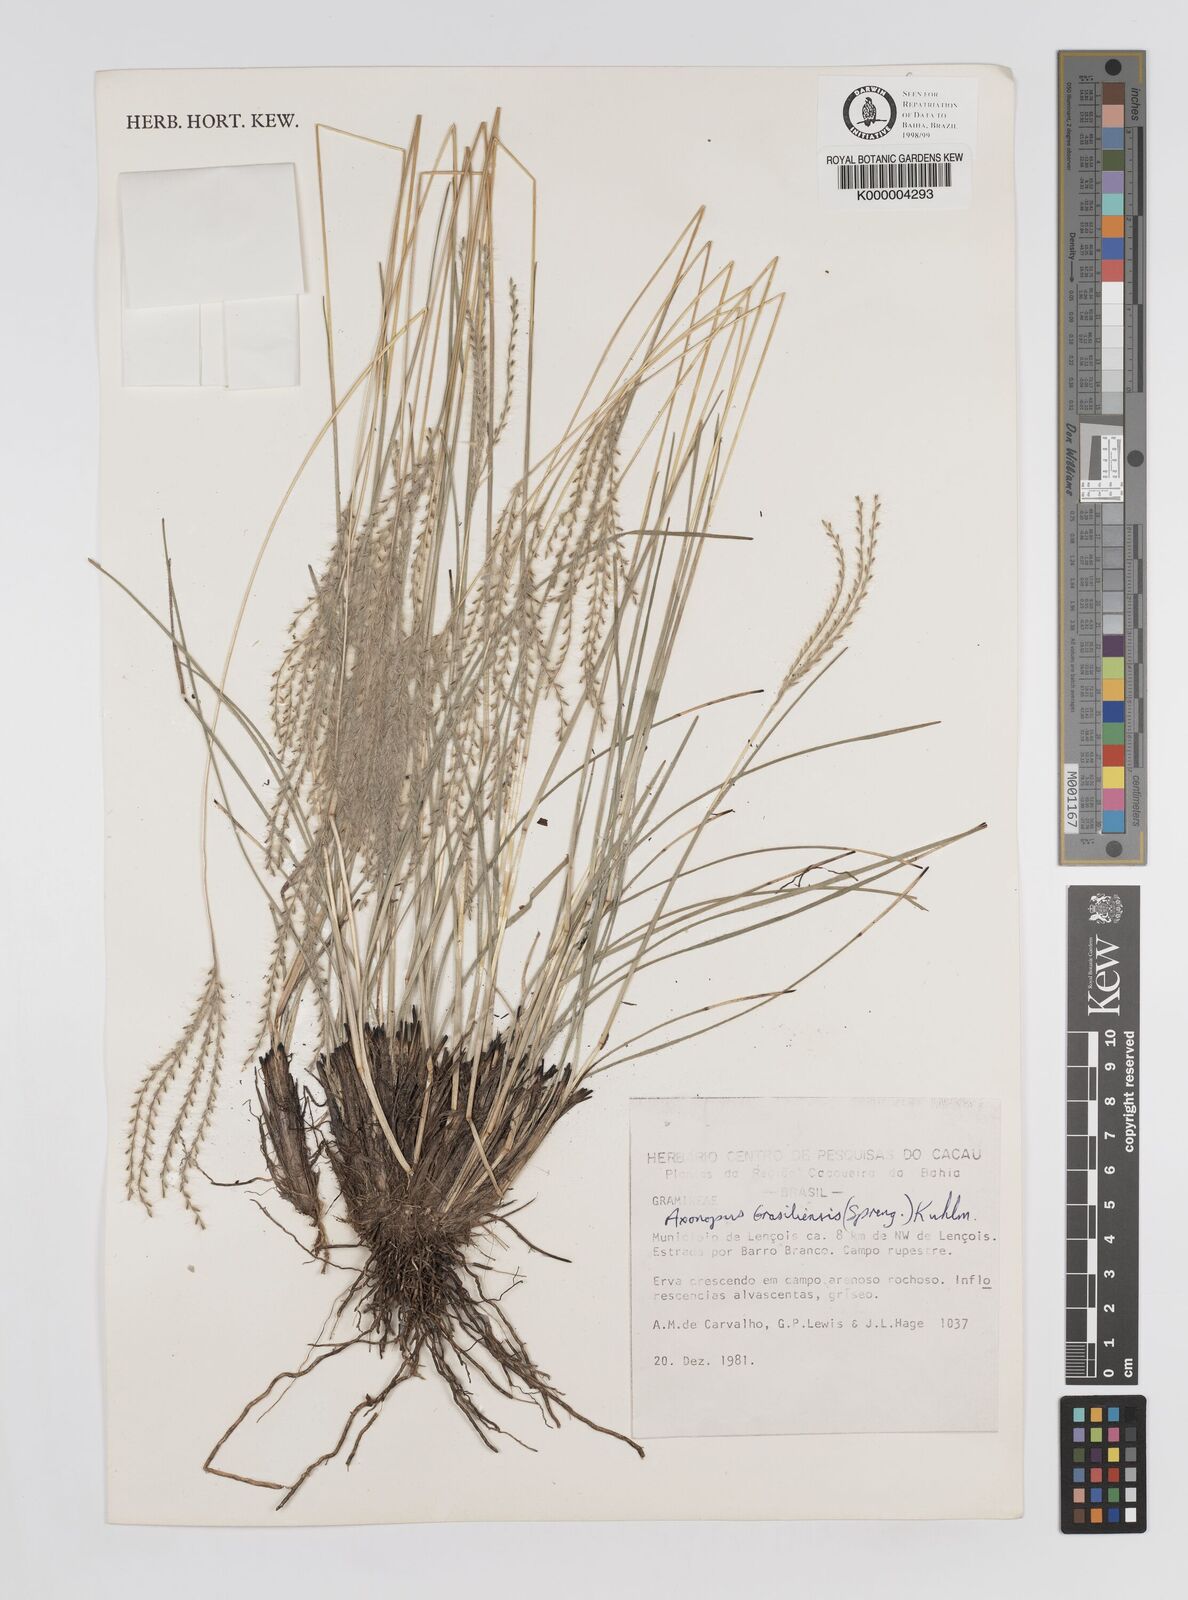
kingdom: Plantae
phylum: Tracheophyta
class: Liliopsida
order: Poales
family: Poaceae
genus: Axonopus
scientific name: Axonopus brasiliensis
